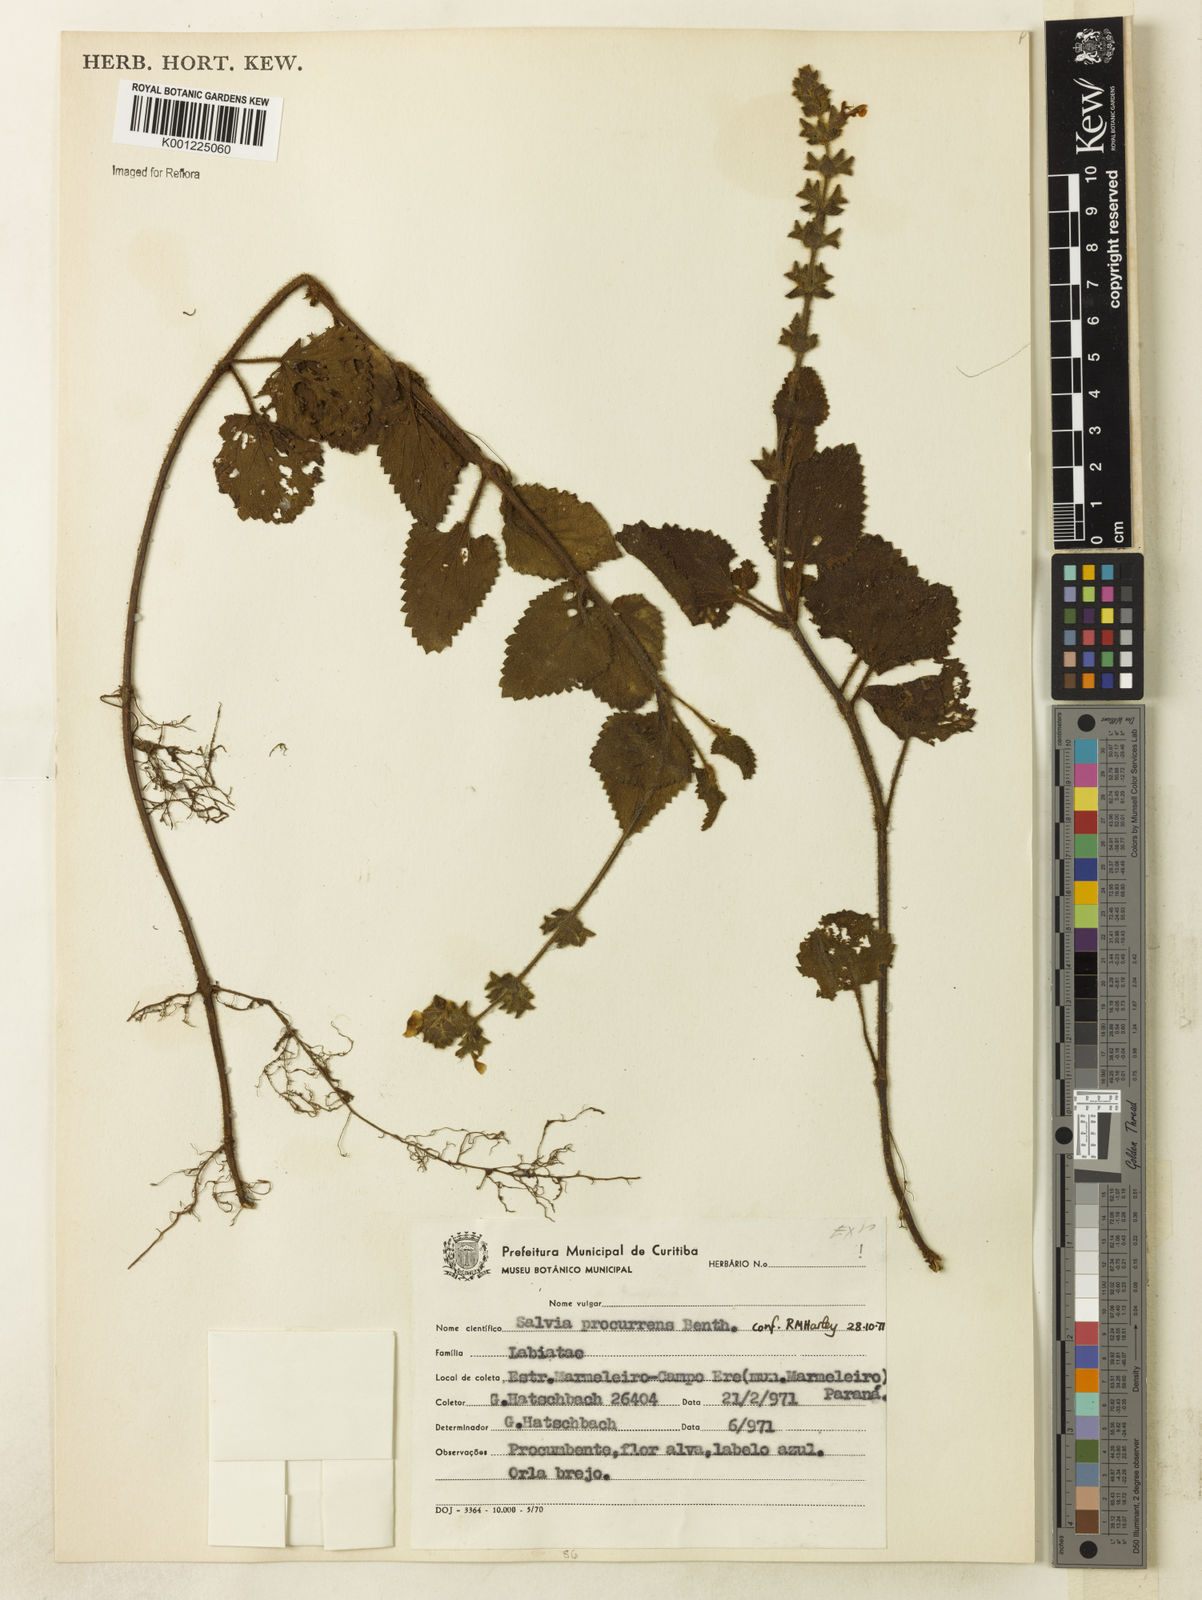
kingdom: Plantae
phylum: Tracheophyta
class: Magnoliopsida
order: Lamiales
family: Lamiaceae
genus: Salvia
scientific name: Salvia procurrens
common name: Blue creeper
